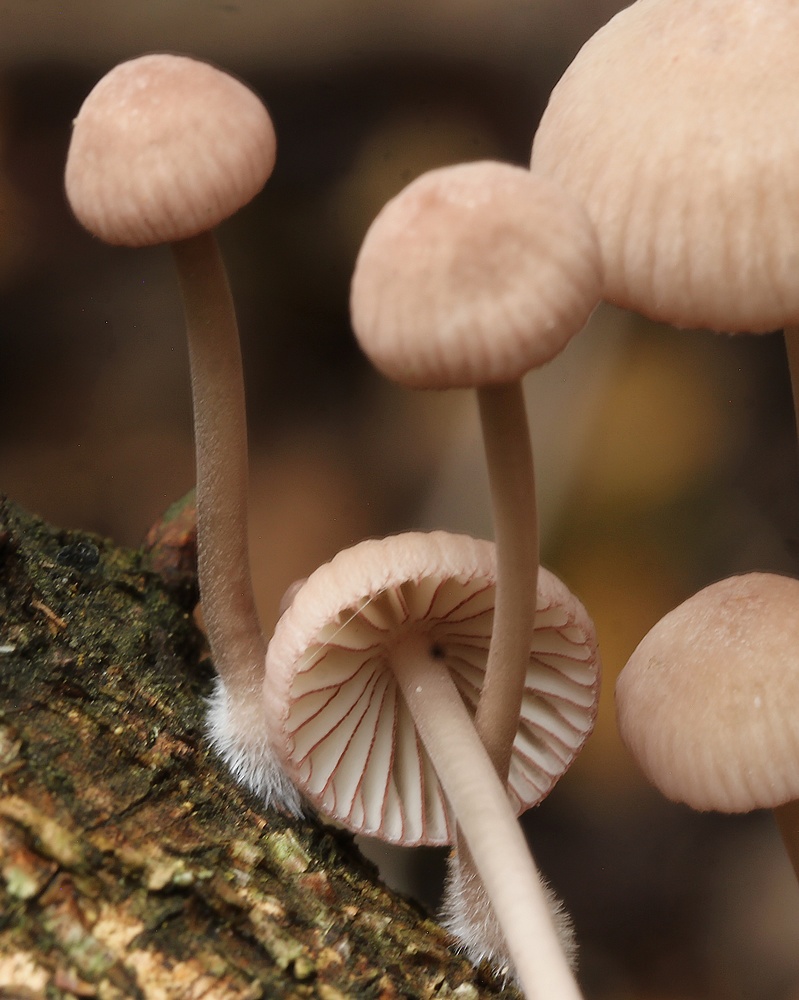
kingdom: Fungi
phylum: Basidiomycota
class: Agaricomycetes
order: Agaricales
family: Mycenaceae
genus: Mycena
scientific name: Mycena rubromarginata
